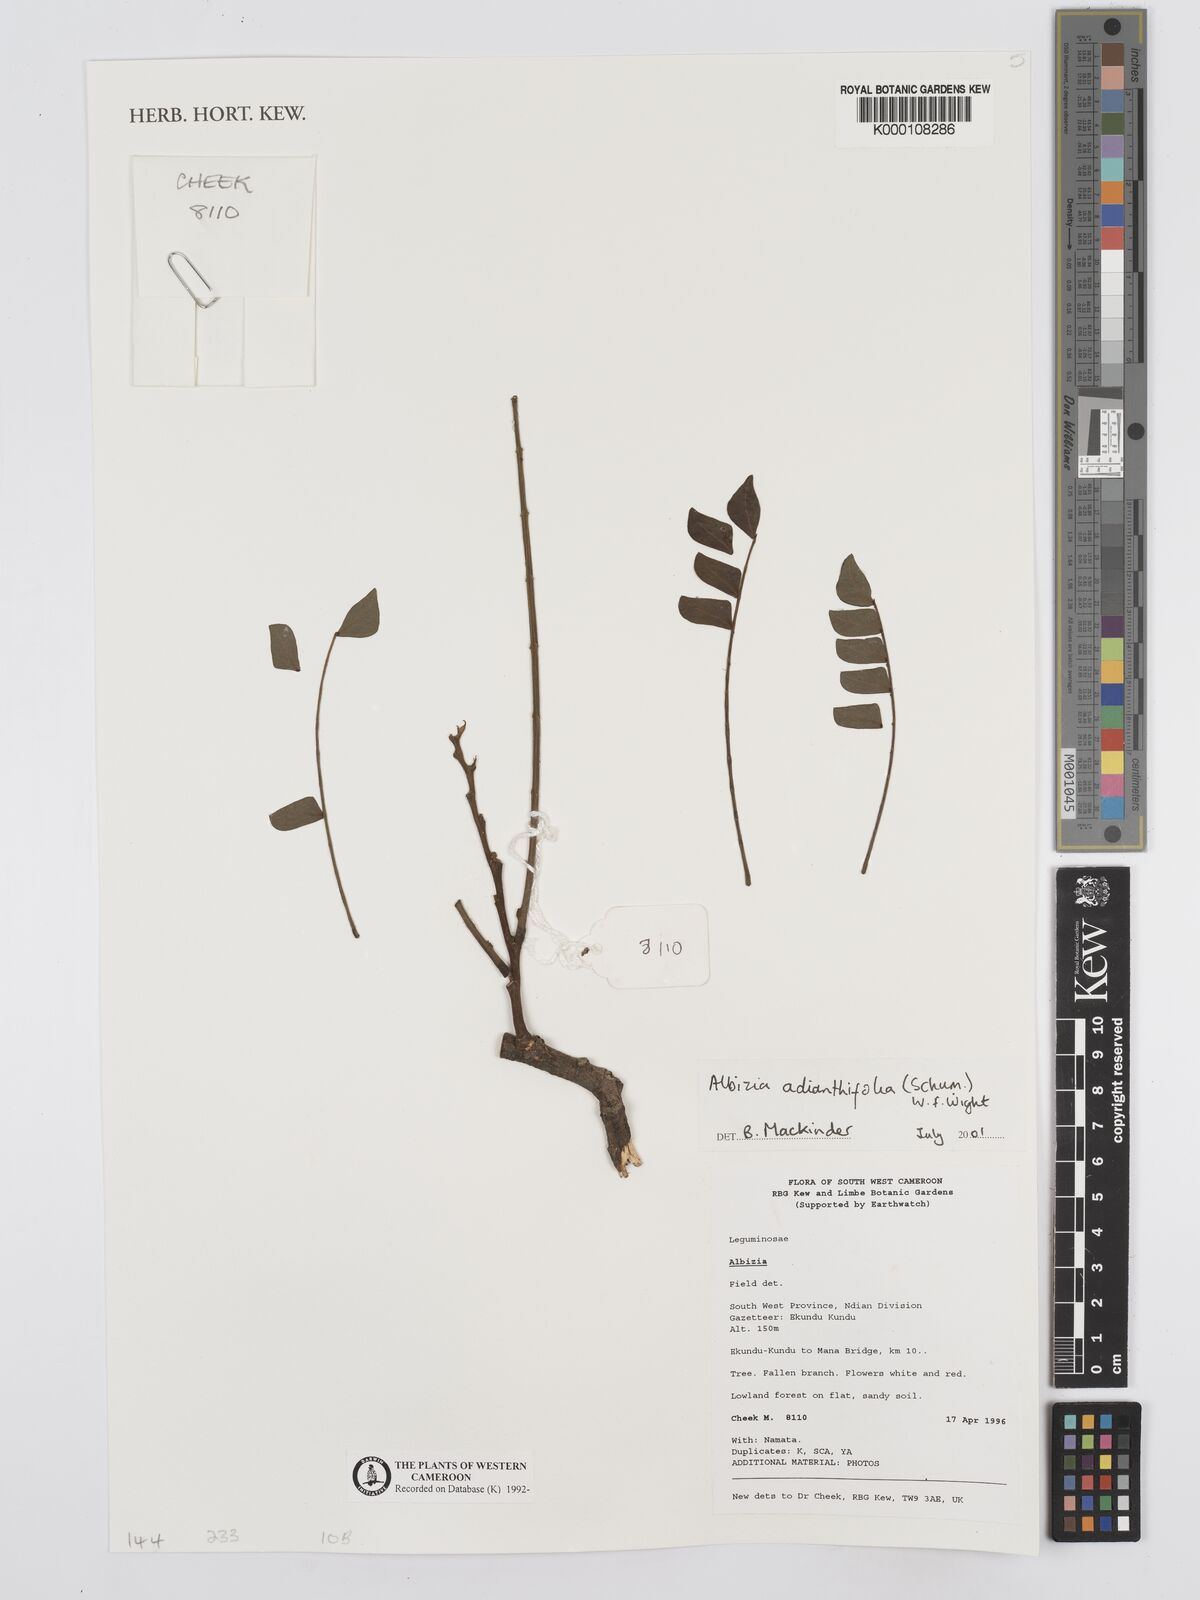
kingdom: Plantae
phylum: Tracheophyta
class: Magnoliopsida
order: Fabales
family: Fabaceae
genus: Albizia
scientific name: Albizia adianthifolia
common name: West african albizia
